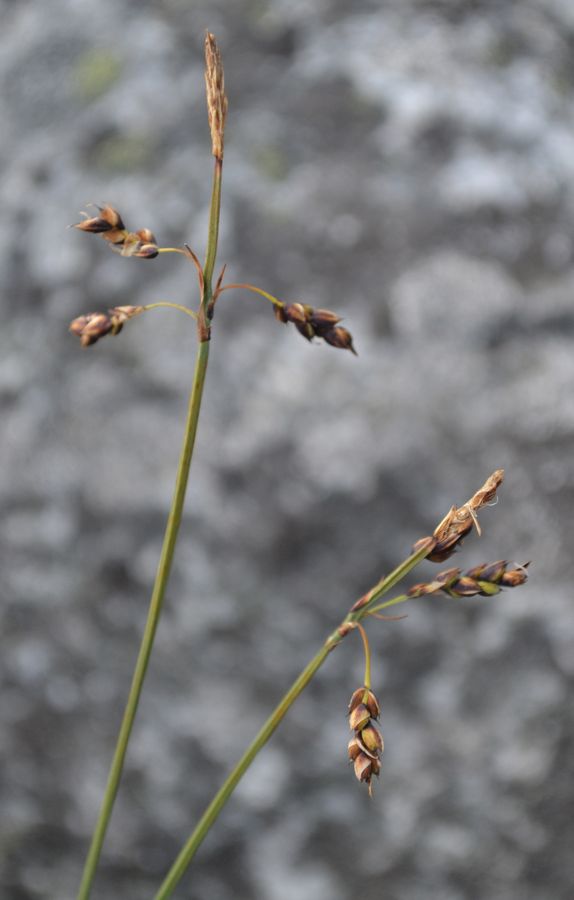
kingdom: Plantae
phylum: Tracheophyta
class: Liliopsida
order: Poales
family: Cyperaceae
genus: Carex
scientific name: Carex capillaris
